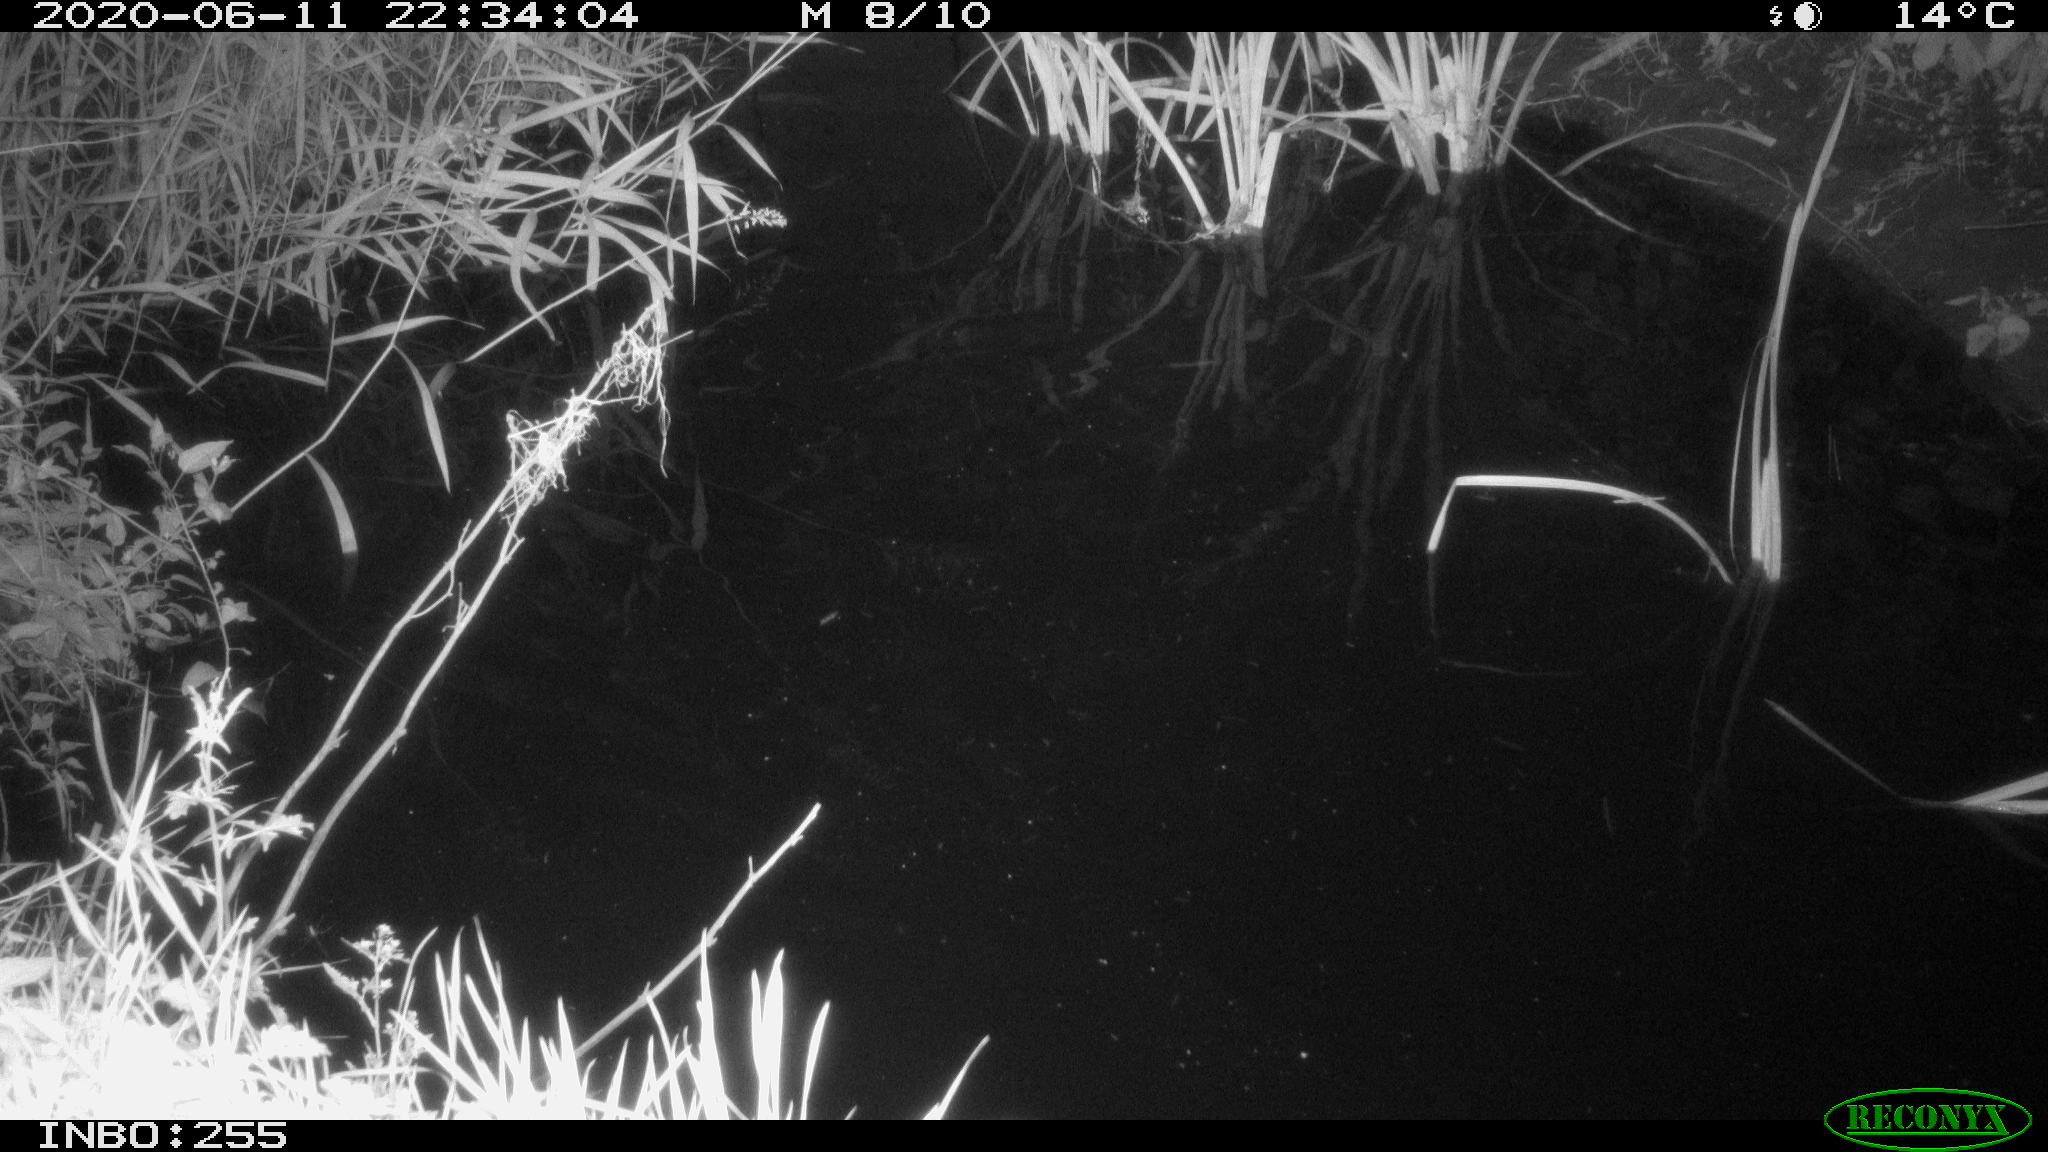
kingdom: Animalia
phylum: Chordata
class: Aves
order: Anseriformes
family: Anatidae
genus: Anas
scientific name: Anas platyrhynchos
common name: Mallard
